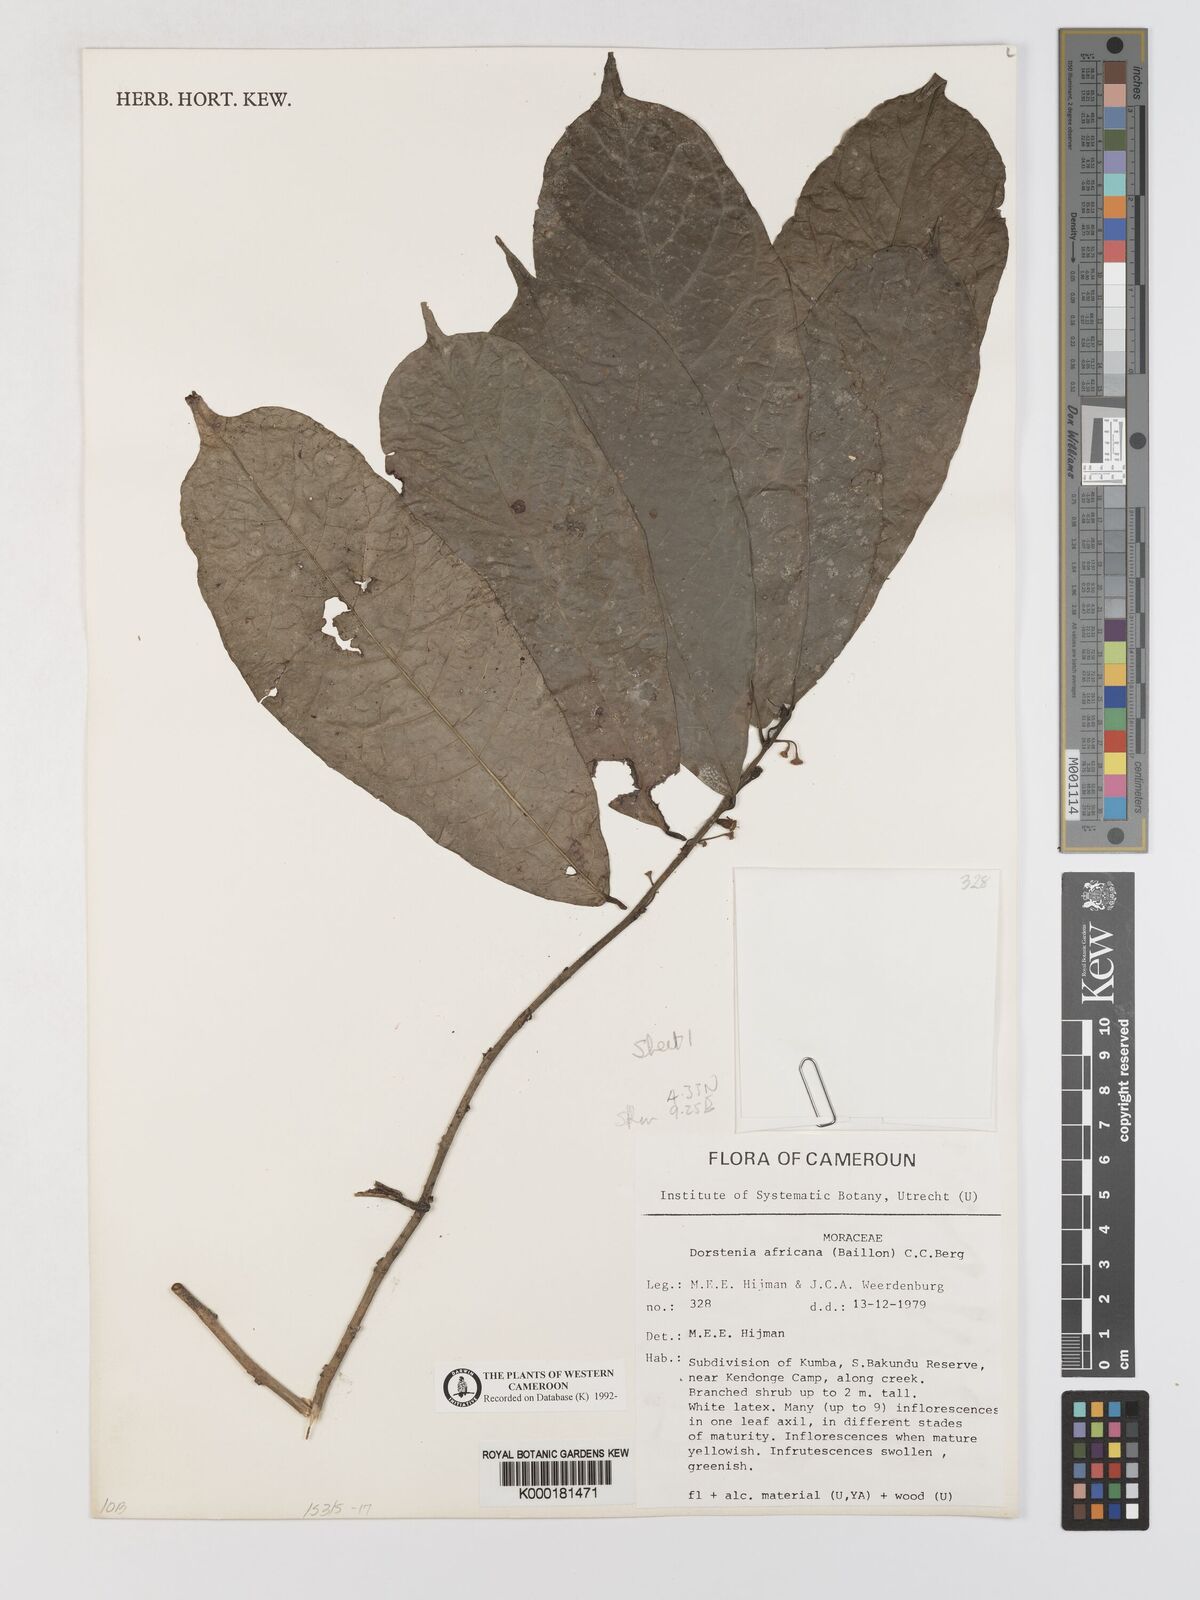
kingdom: Plantae
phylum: Tracheophyta
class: Magnoliopsida
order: Rosales
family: Moraceae
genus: Dorstenia
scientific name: Dorstenia africana
